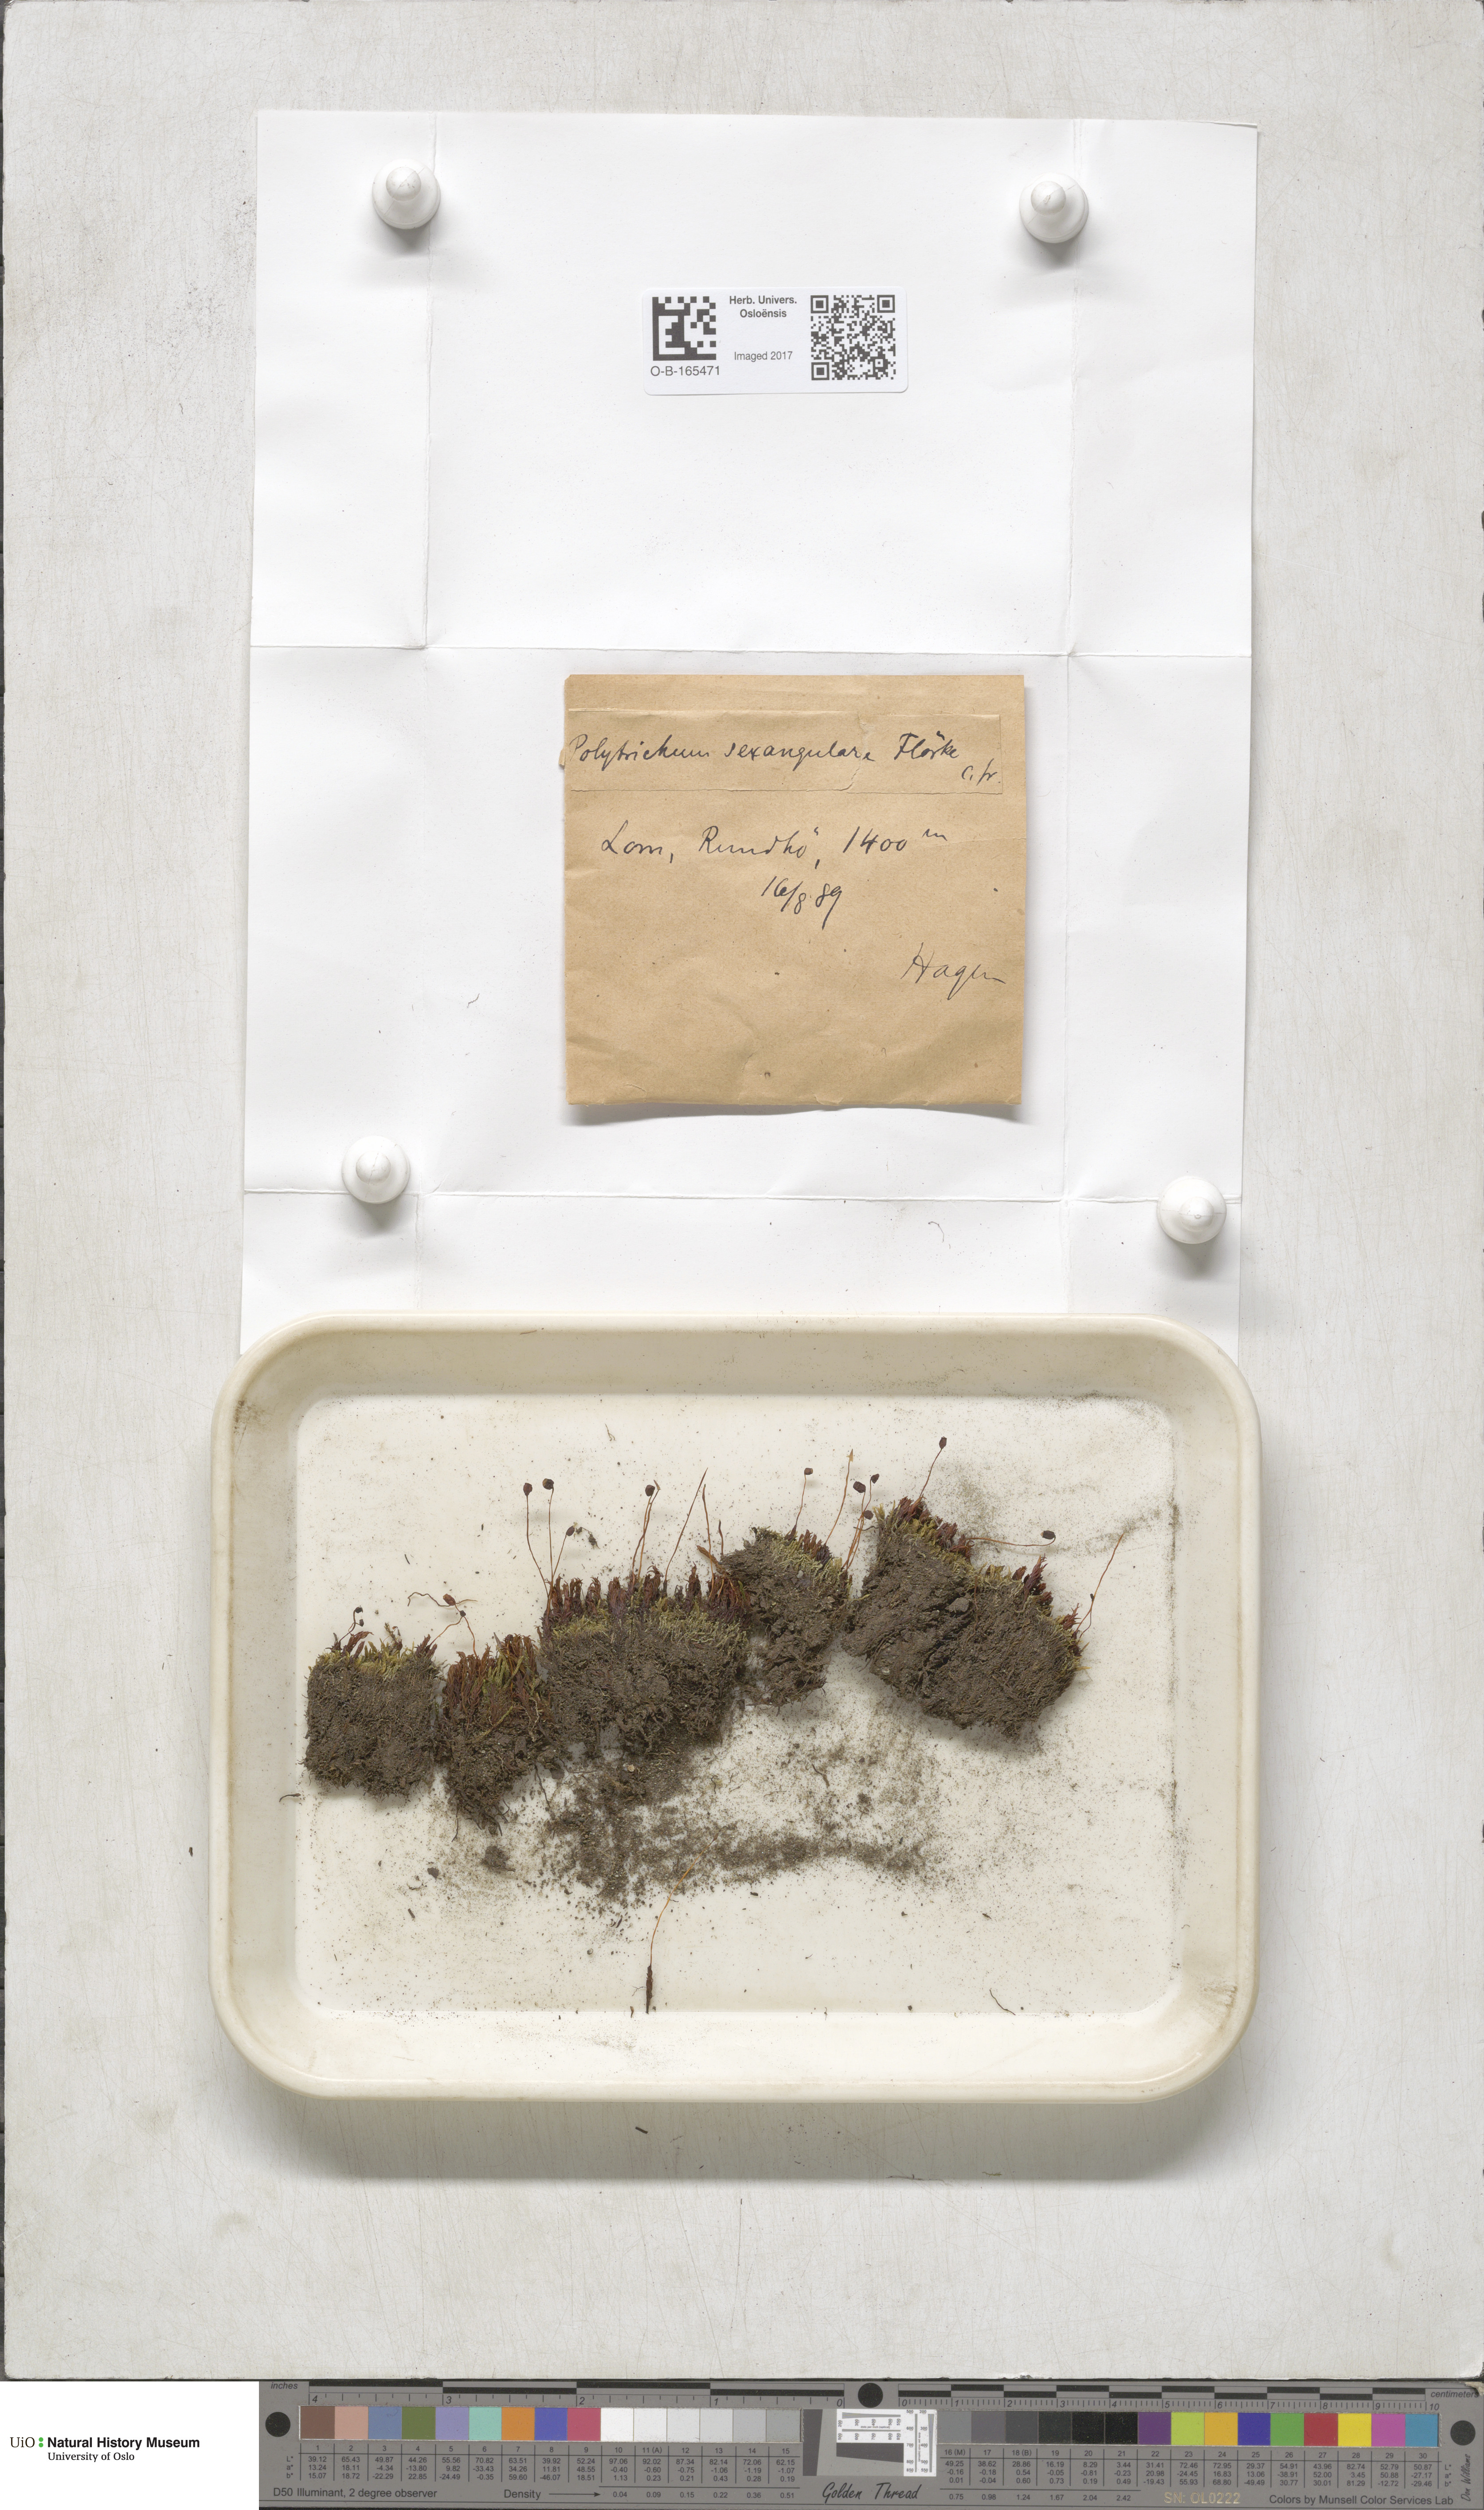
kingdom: Plantae
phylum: Bryophyta
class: Polytrichopsida
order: Polytrichales
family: Polytrichaceae
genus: Polytrichastrum
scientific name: Polytrichastrum sexangulare
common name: Northern haircap
